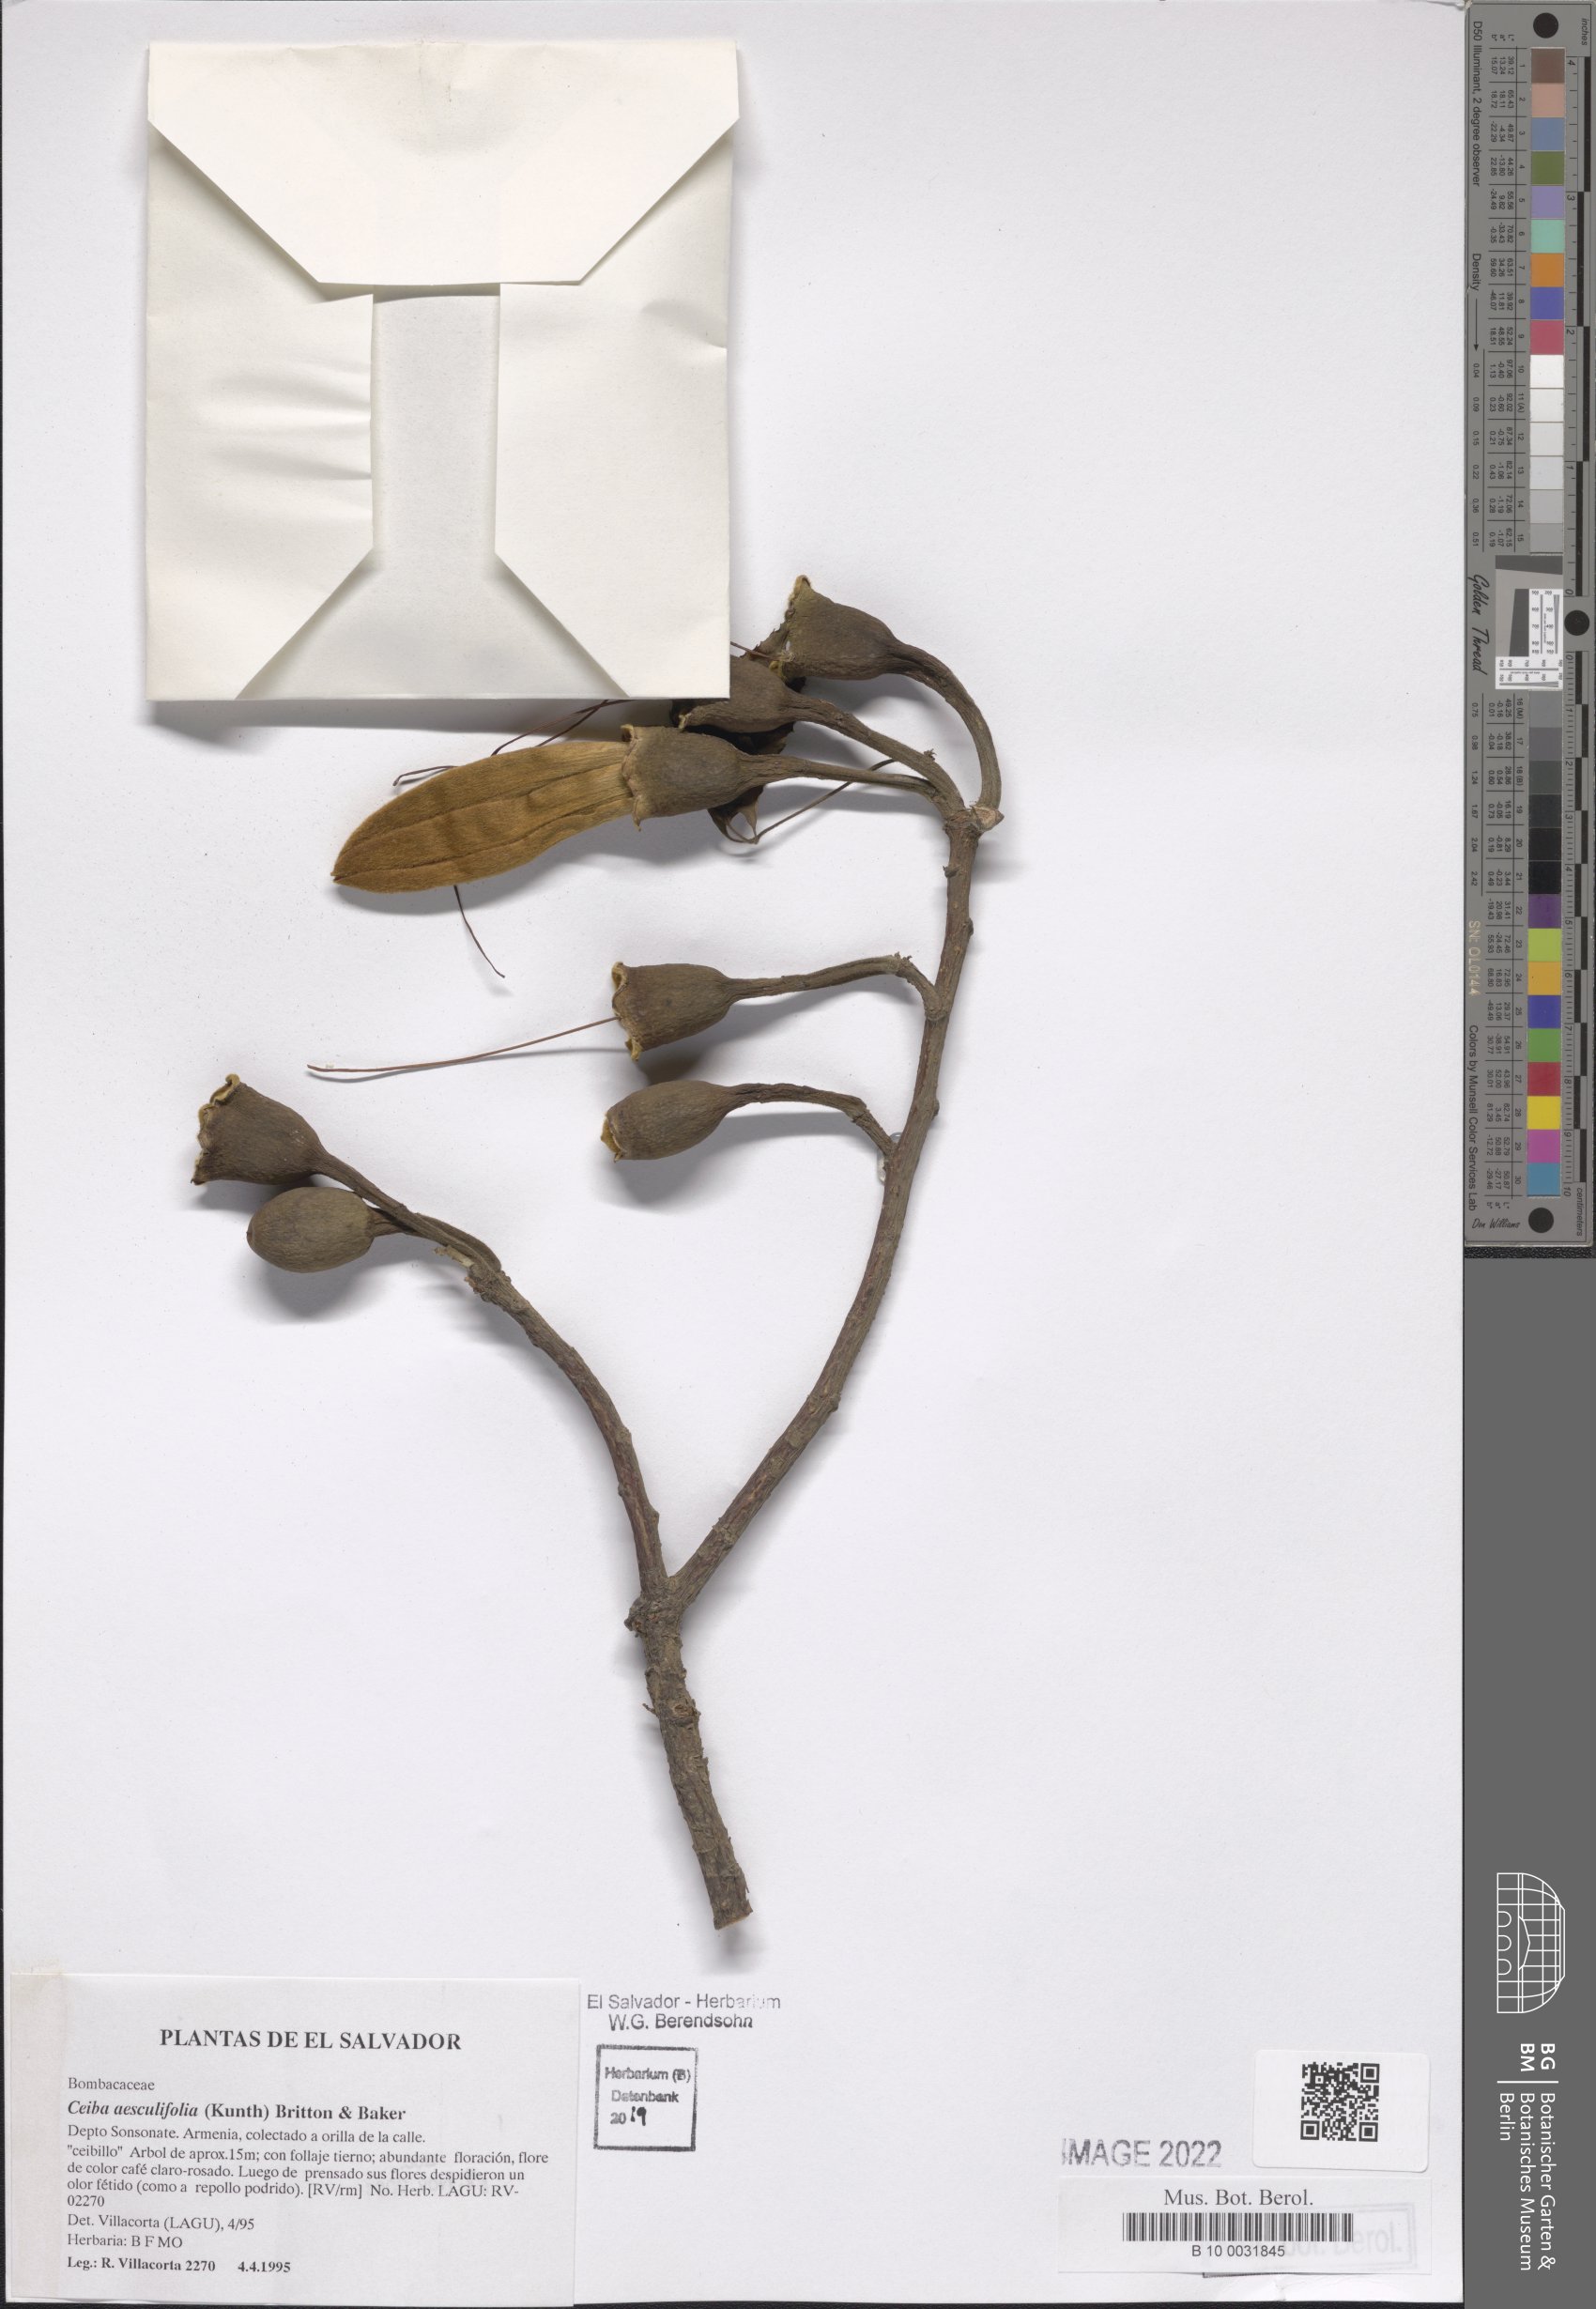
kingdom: Plantae
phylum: Tracheophyta
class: Magnoliopsida
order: Malvales
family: Malvaceae
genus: Ceiba
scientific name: Ceiba aesculifolia
